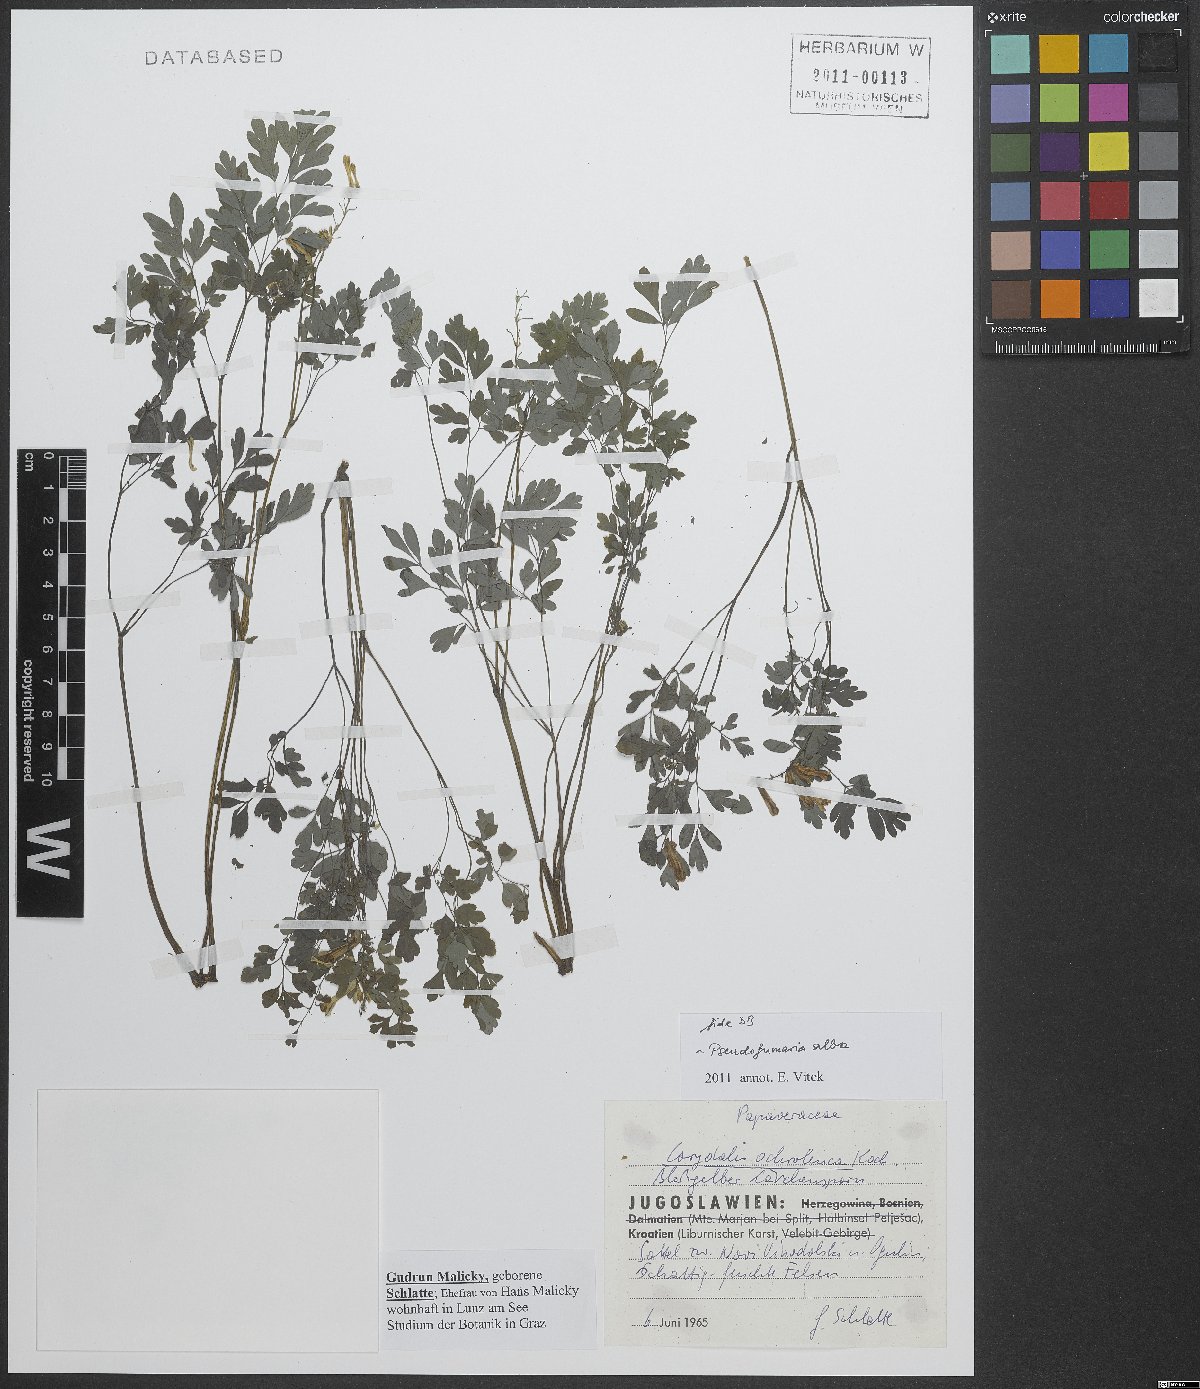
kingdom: Plantae
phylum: Tracheophyta
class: Magnoliopsida
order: Ranunculales
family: Papaveraceae
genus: Pseudofumaria
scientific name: Pseudofumaria alba
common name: Pale corydalis
